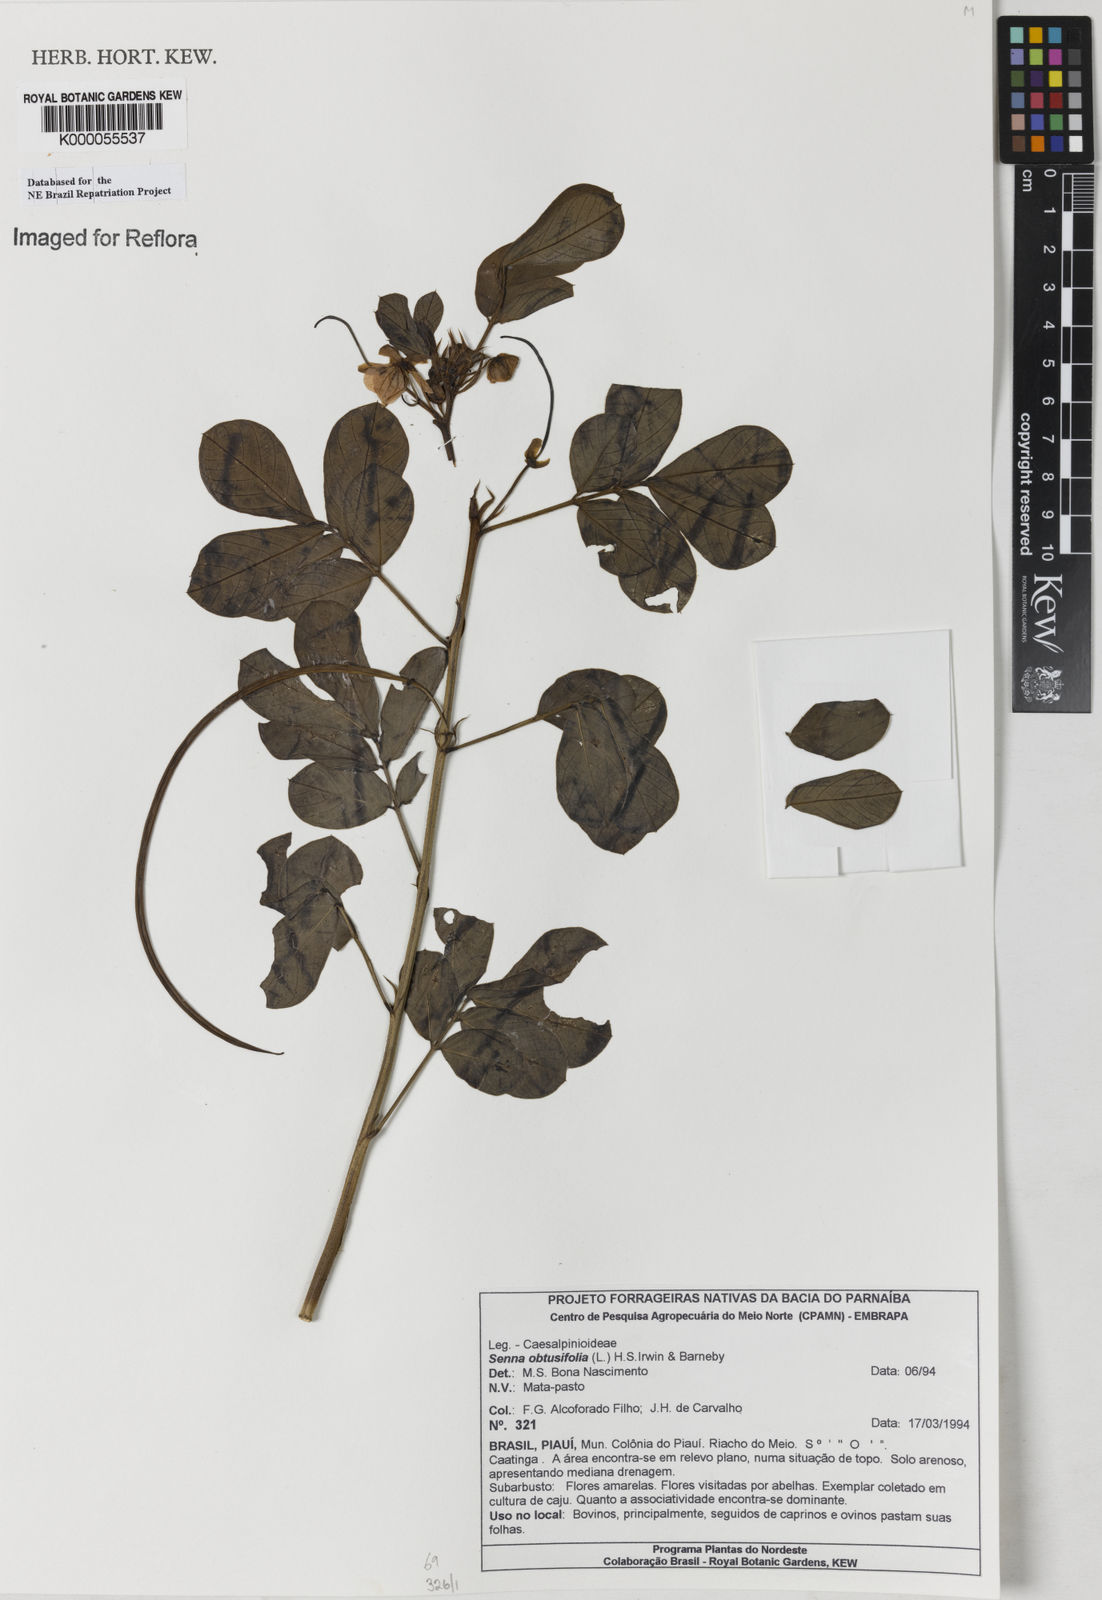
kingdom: Plantae
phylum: Tracheophyta
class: Magnoliopsida
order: Fabales
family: Fabaceae
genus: Senna
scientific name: Senna obtusifolia
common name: Java-bean
